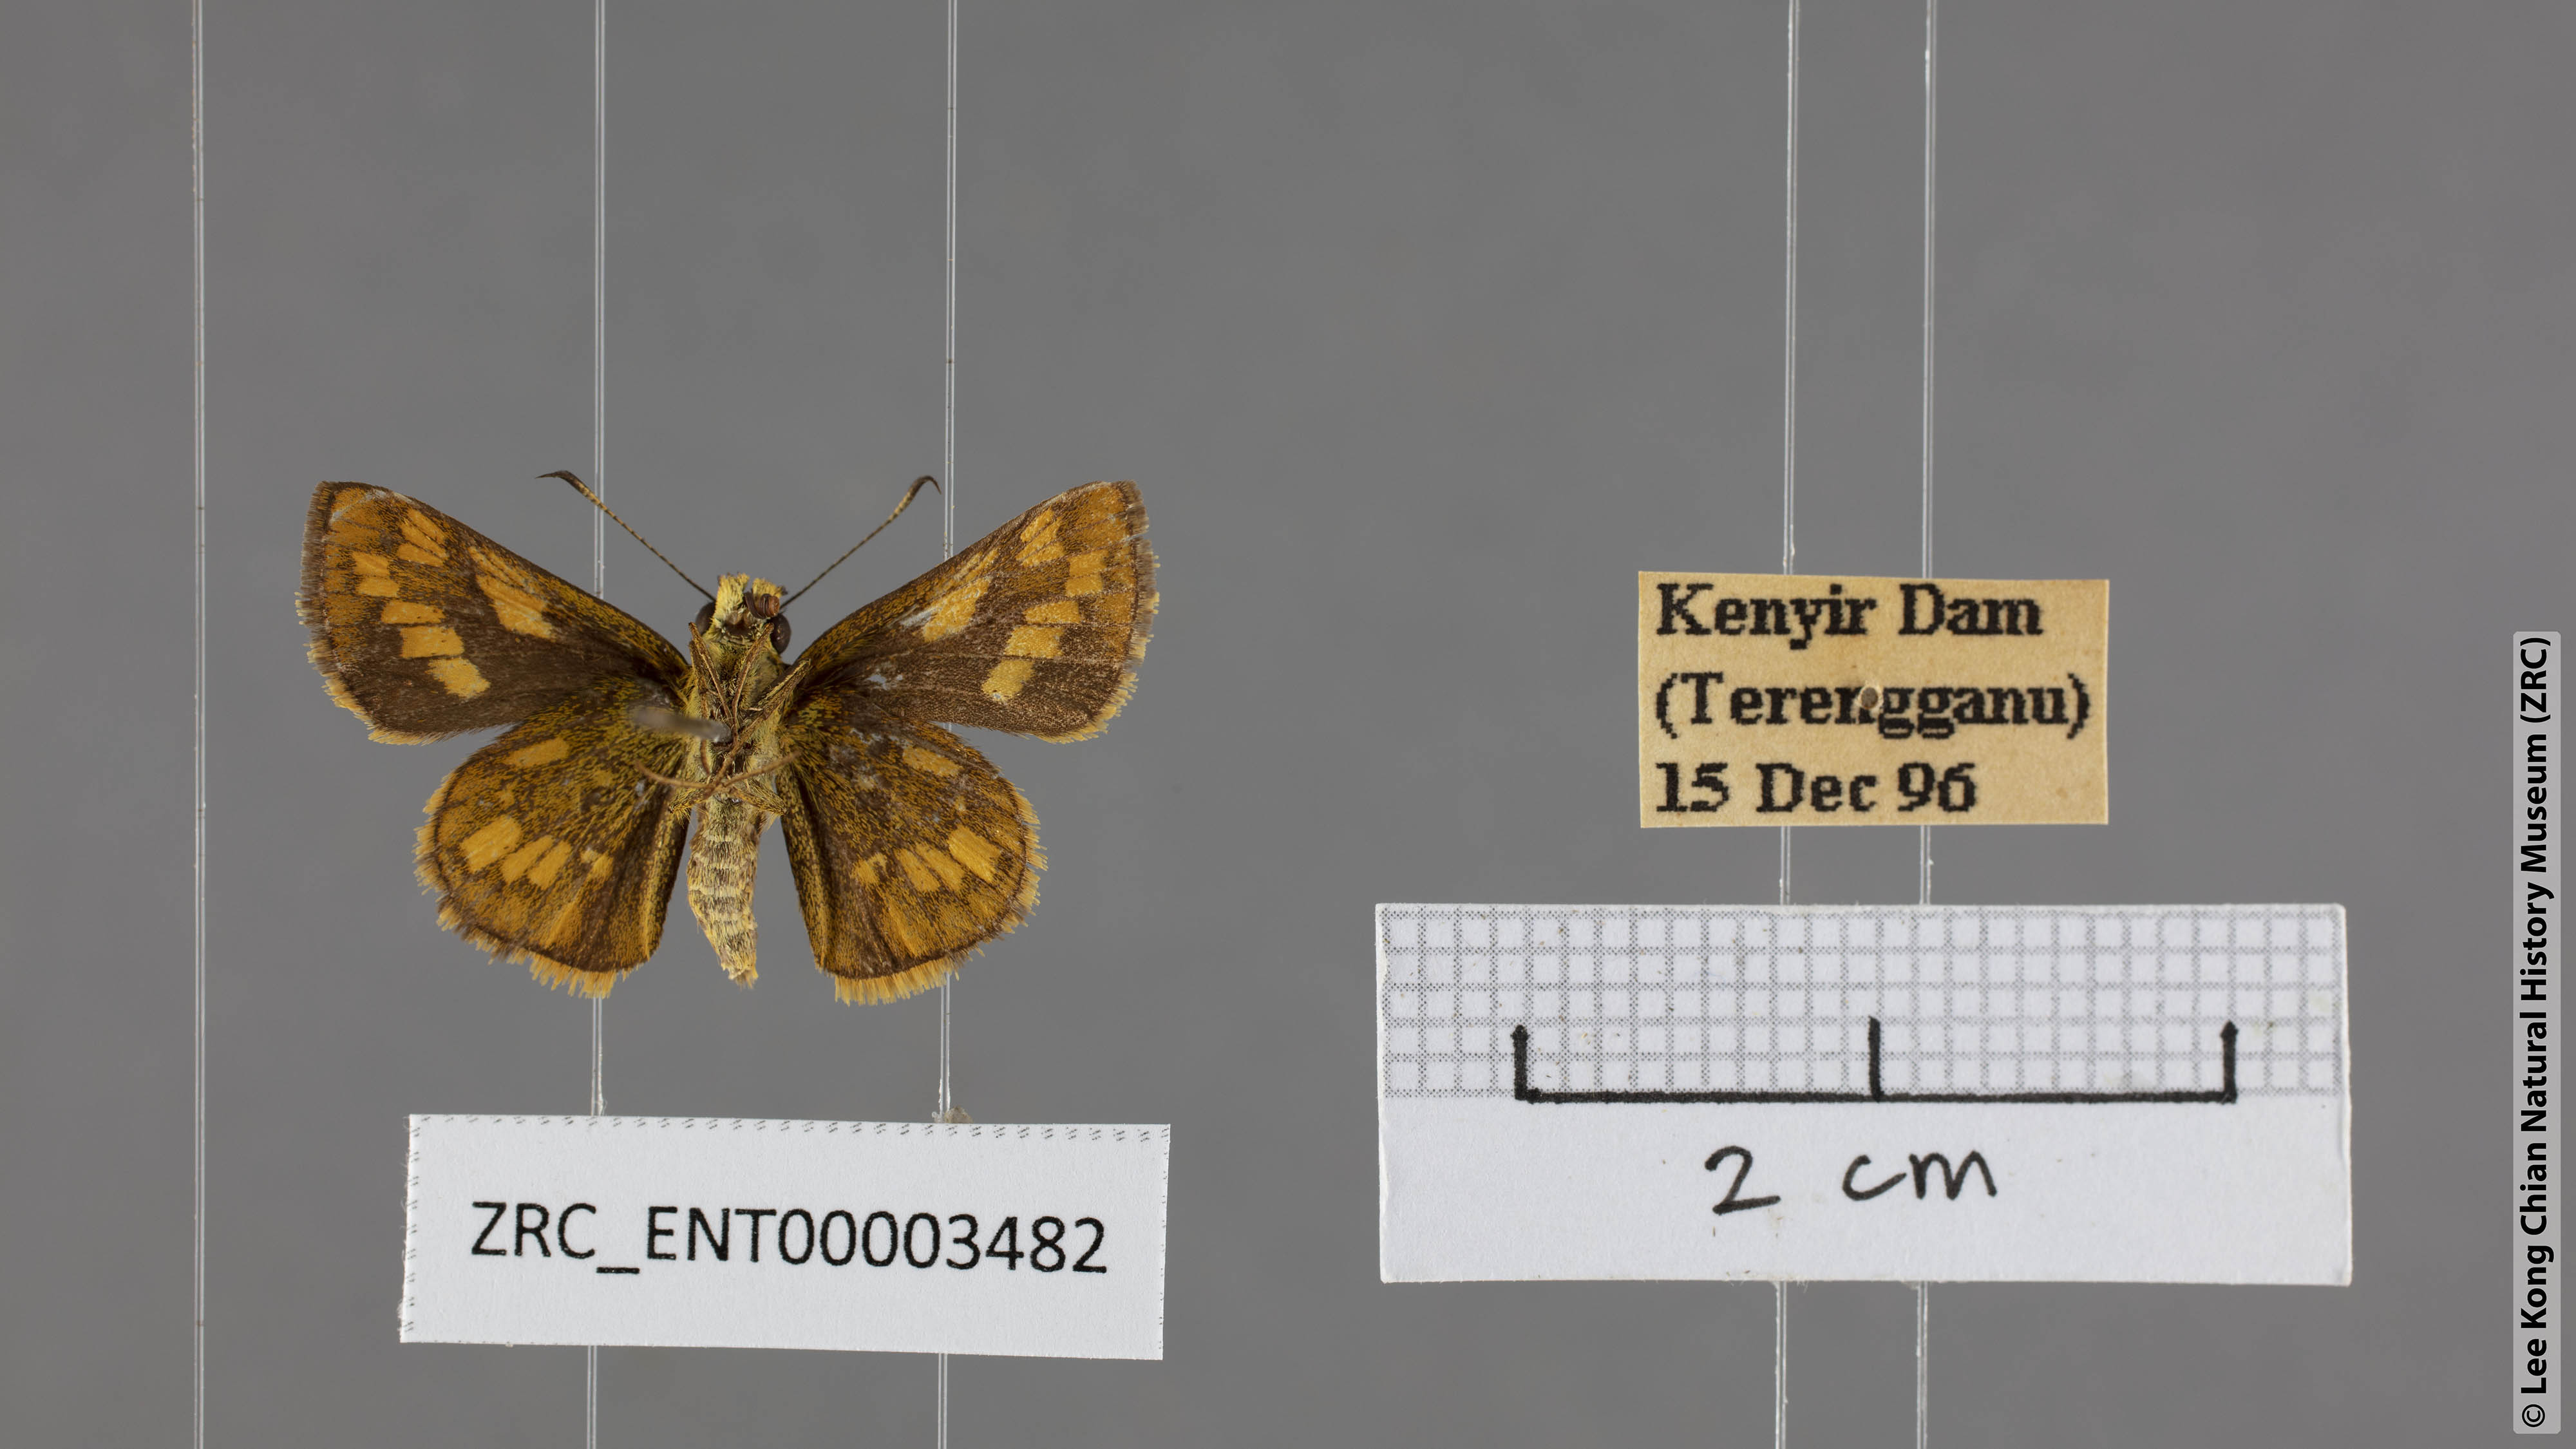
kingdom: Animalia
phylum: Arthropoda
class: Insecta
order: Lepidoptera
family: Hesperiidae
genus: Potanthus
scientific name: Potanthus omaha
